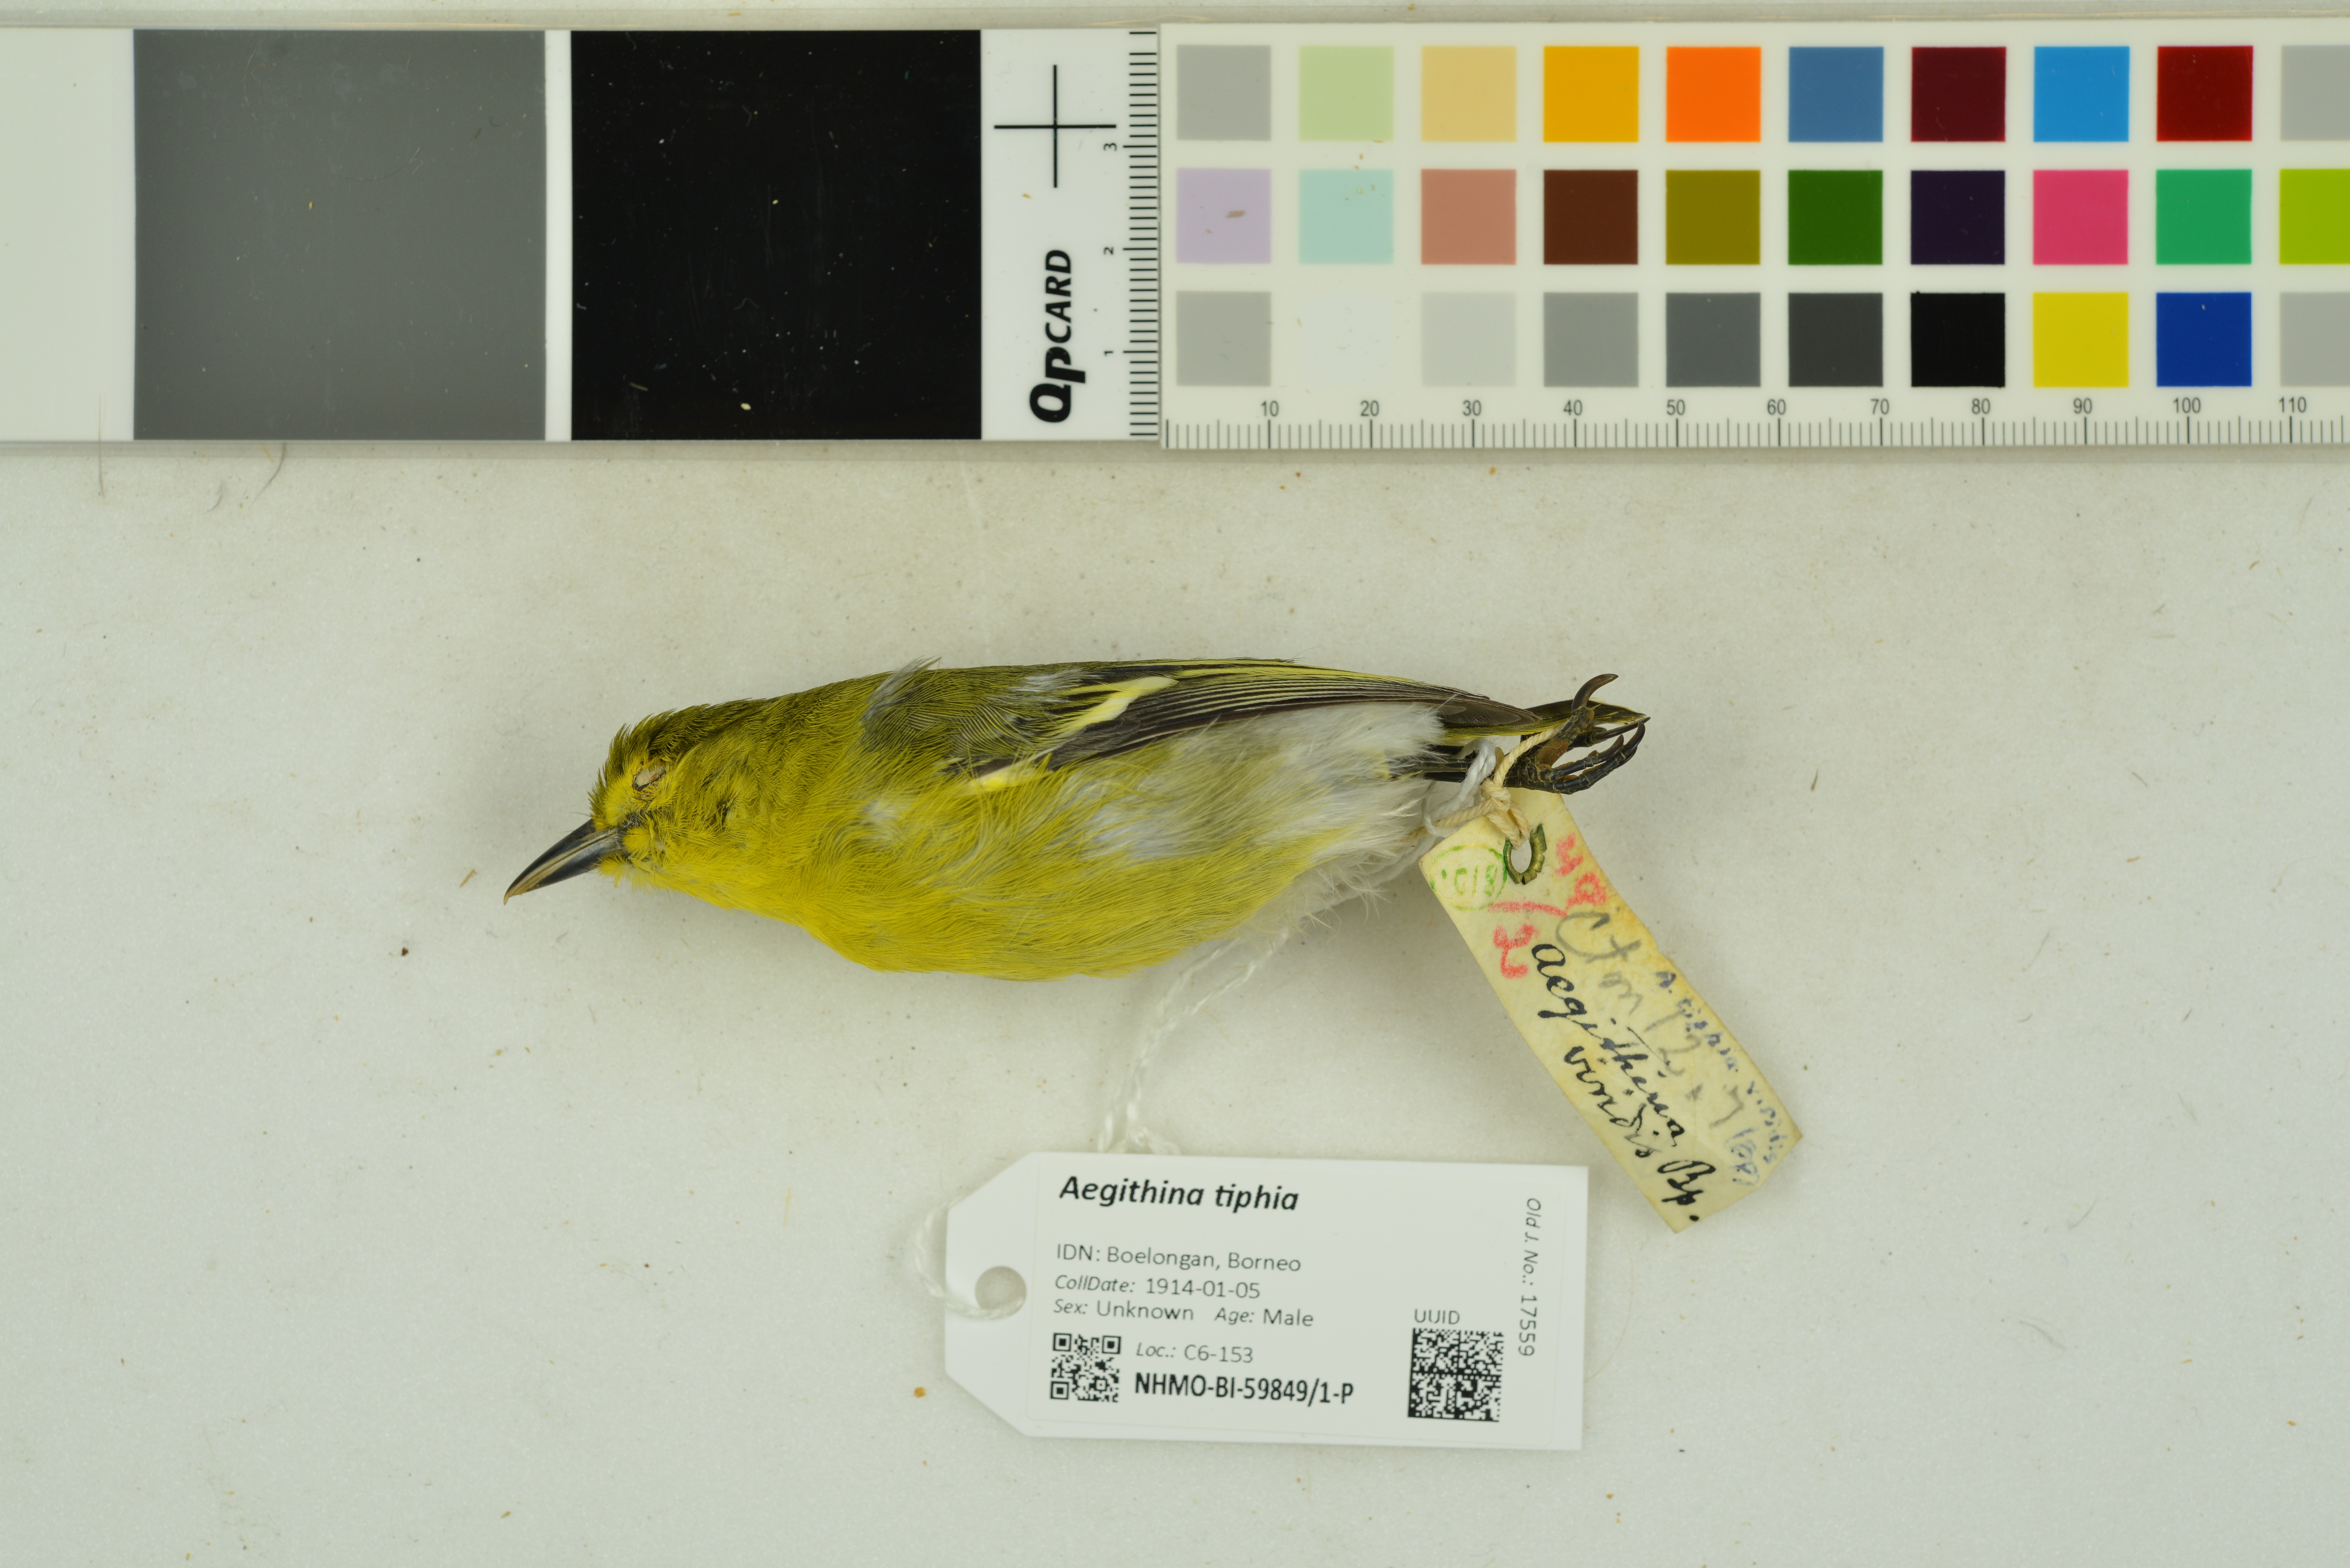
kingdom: Animalia
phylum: Chordata
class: Aves
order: Passeriformes
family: Aegithinidae
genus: Aegithina
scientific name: Aegithina tiphia
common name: Common iora
